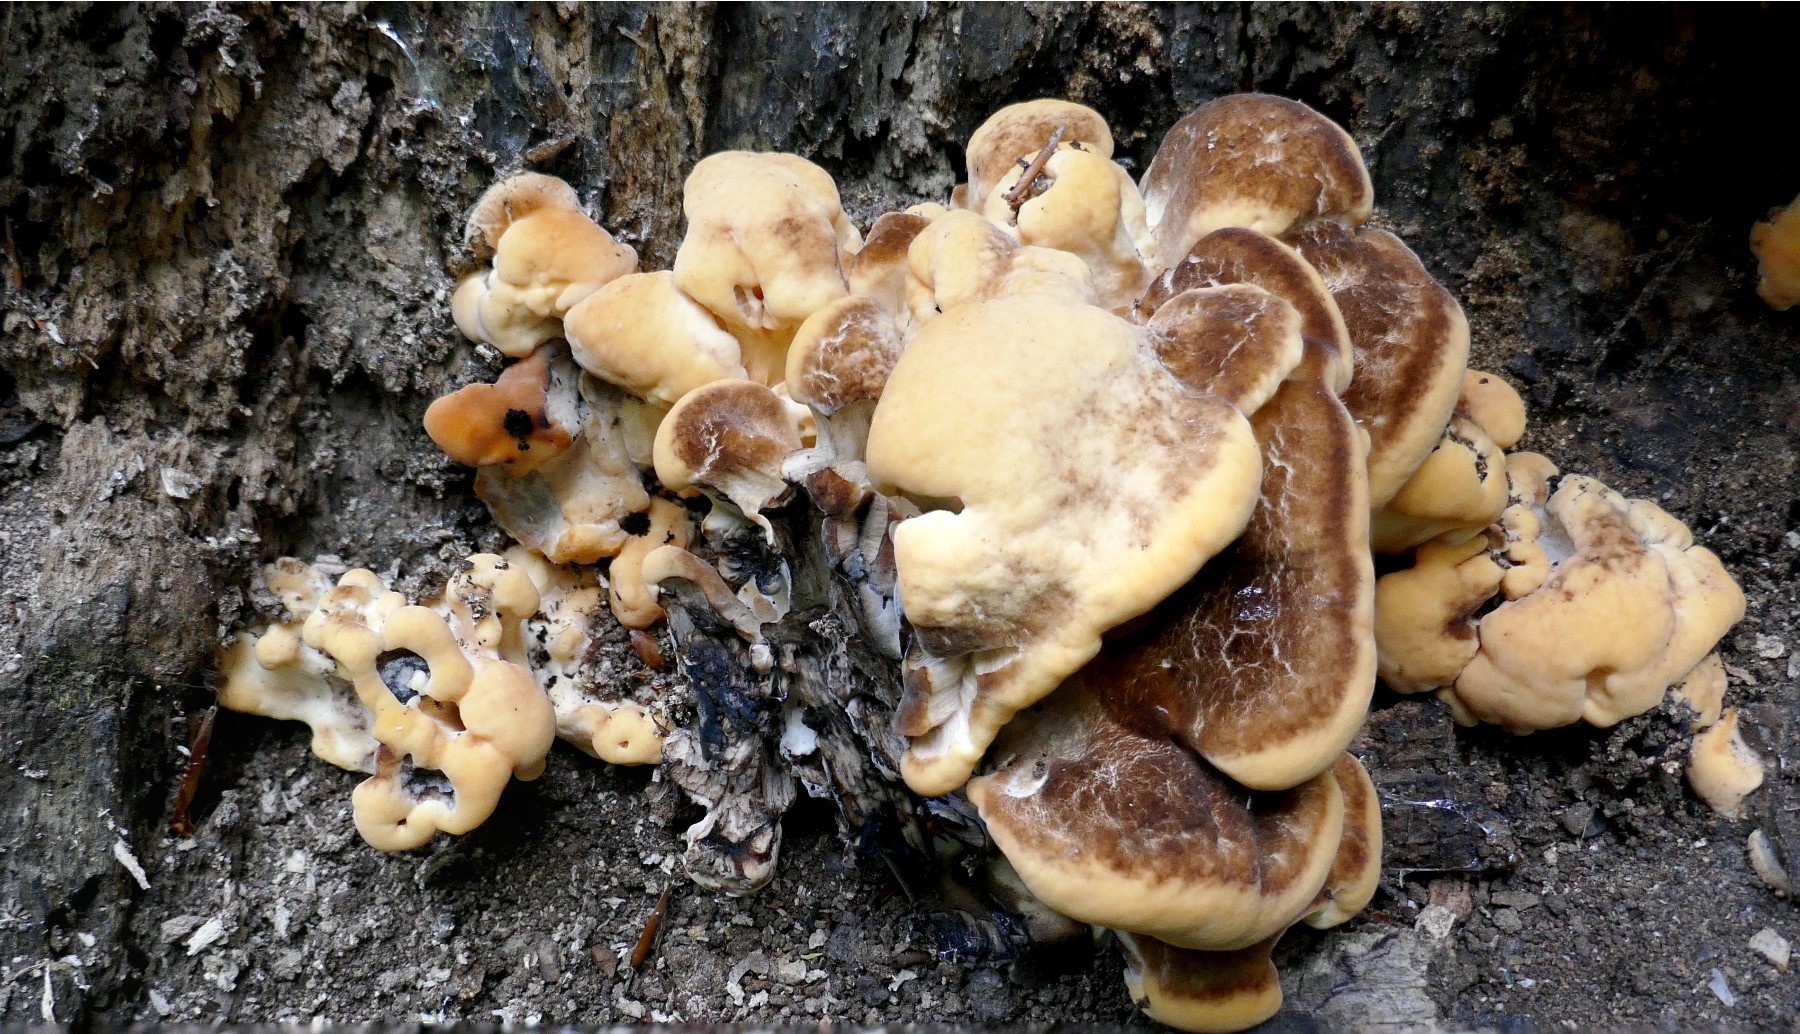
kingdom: Fungi
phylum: Basidiomycota
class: Agaricomycetes
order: Polyporales
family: Meripilaceae
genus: Meripilus
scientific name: Meripilus giganteus
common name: kæmpeporesvamp
